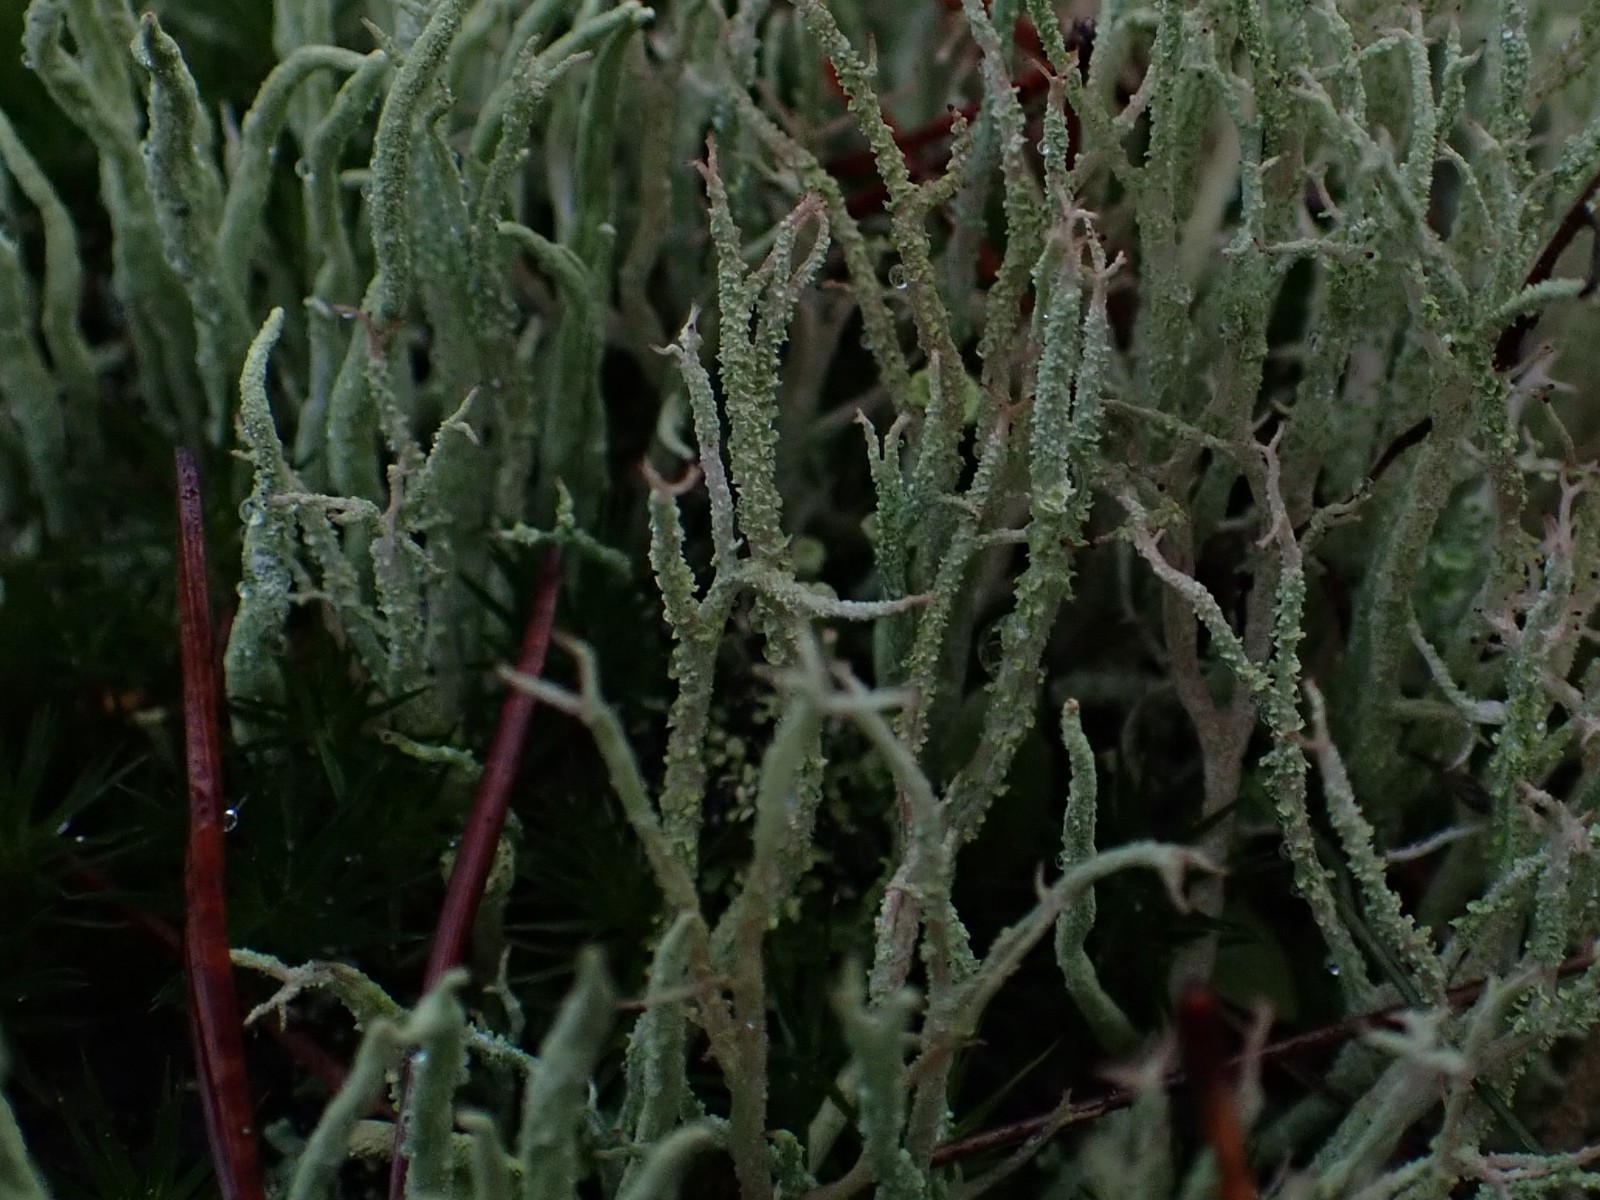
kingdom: Fungi
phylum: Ascomycota
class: Lecanoromycetes
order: Lecanorales
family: Cladoniaceae
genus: Cladonia
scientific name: Cladonia scabriuscula
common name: ru bægerlav
